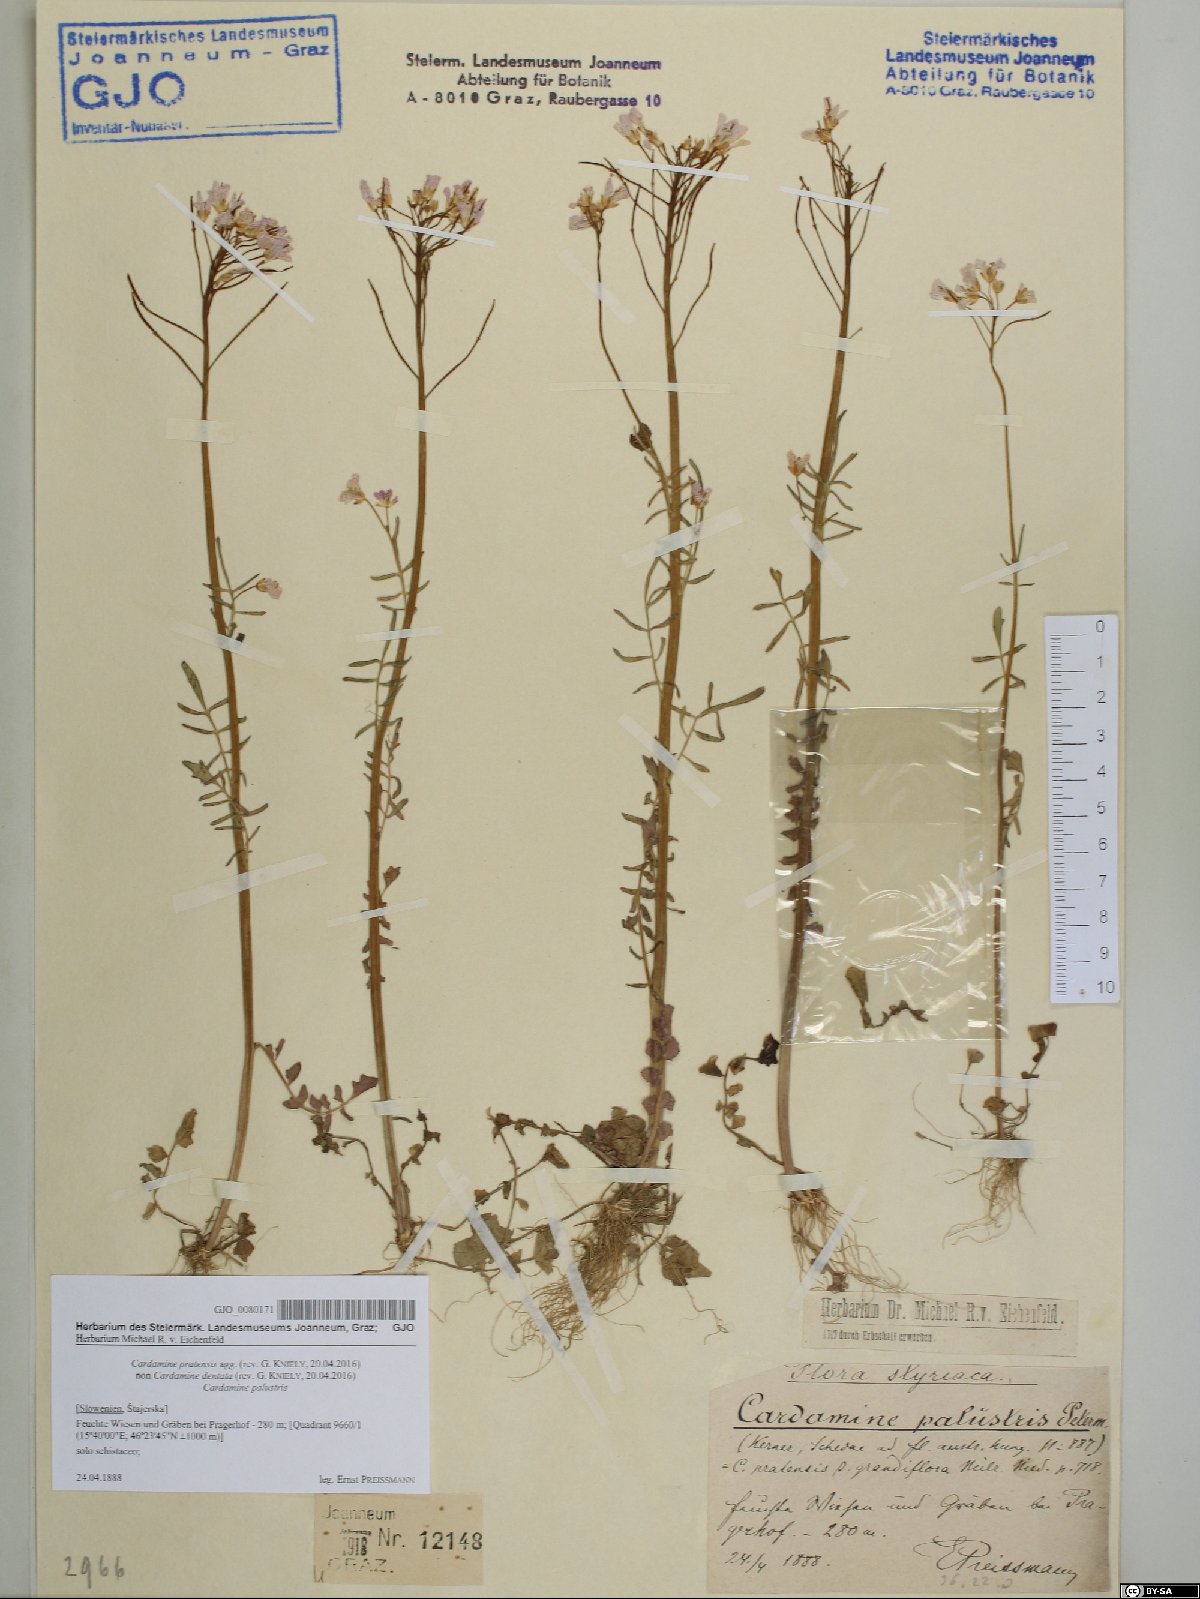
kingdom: Plantae
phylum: Tracheophyta
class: Magnoliopsida
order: Brassicales
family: Brassicaceae
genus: Cardamine
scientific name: Cardamine pratensis
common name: Cuckoo flower
